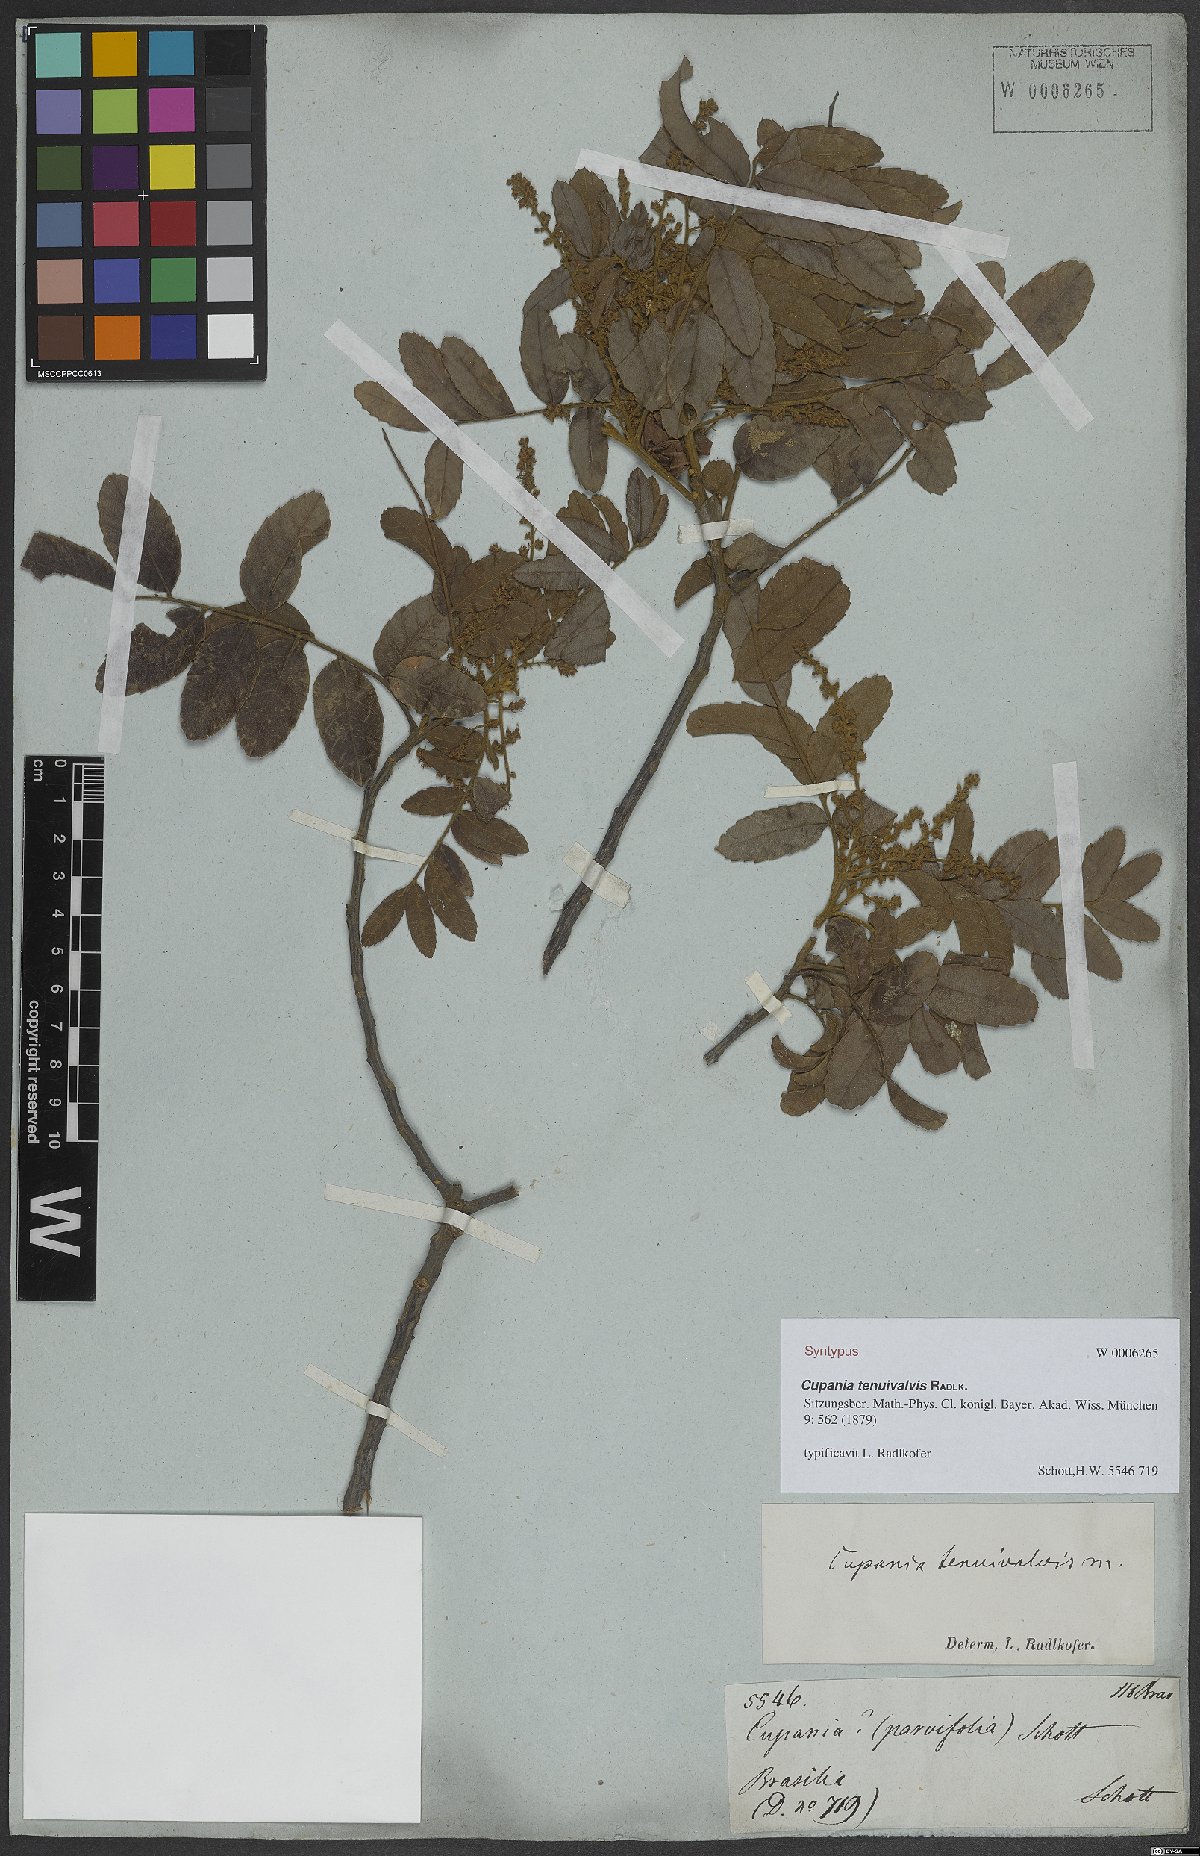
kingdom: Plantae
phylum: Tracheophyta
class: Magnoliopsida
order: Sapindales
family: Sapindaceae
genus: Cupania
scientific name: Cupania tenuivalvis
